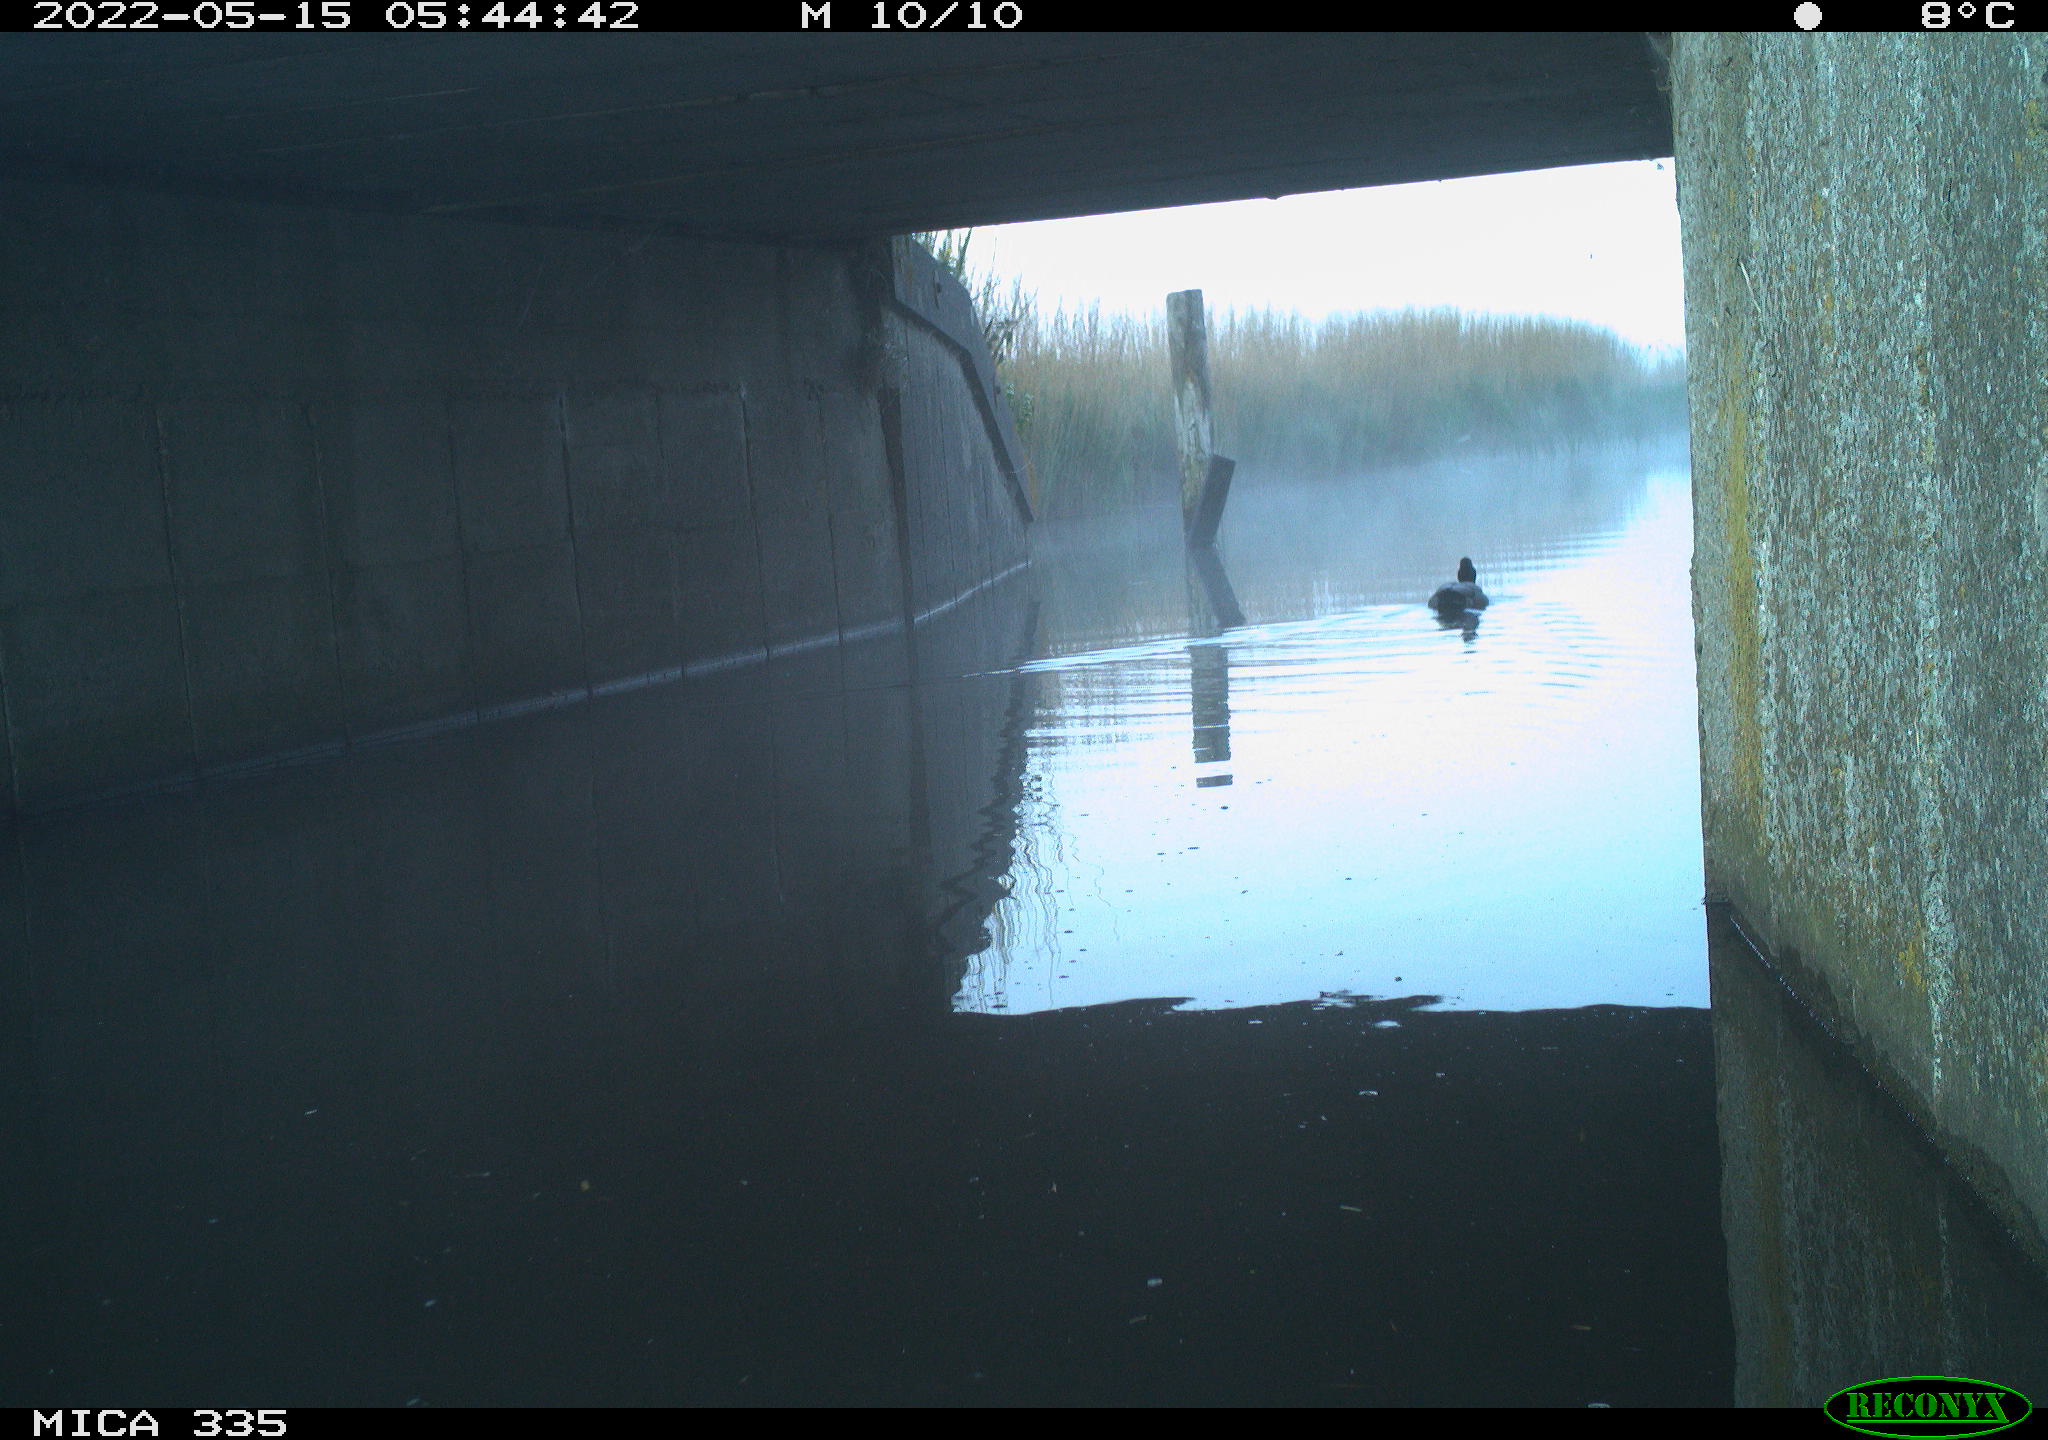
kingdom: Animalia
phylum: Chordata
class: Aves
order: Anseriformes
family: Anatidae
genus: Anas
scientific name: Anas platyrhynchos
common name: Mallard
